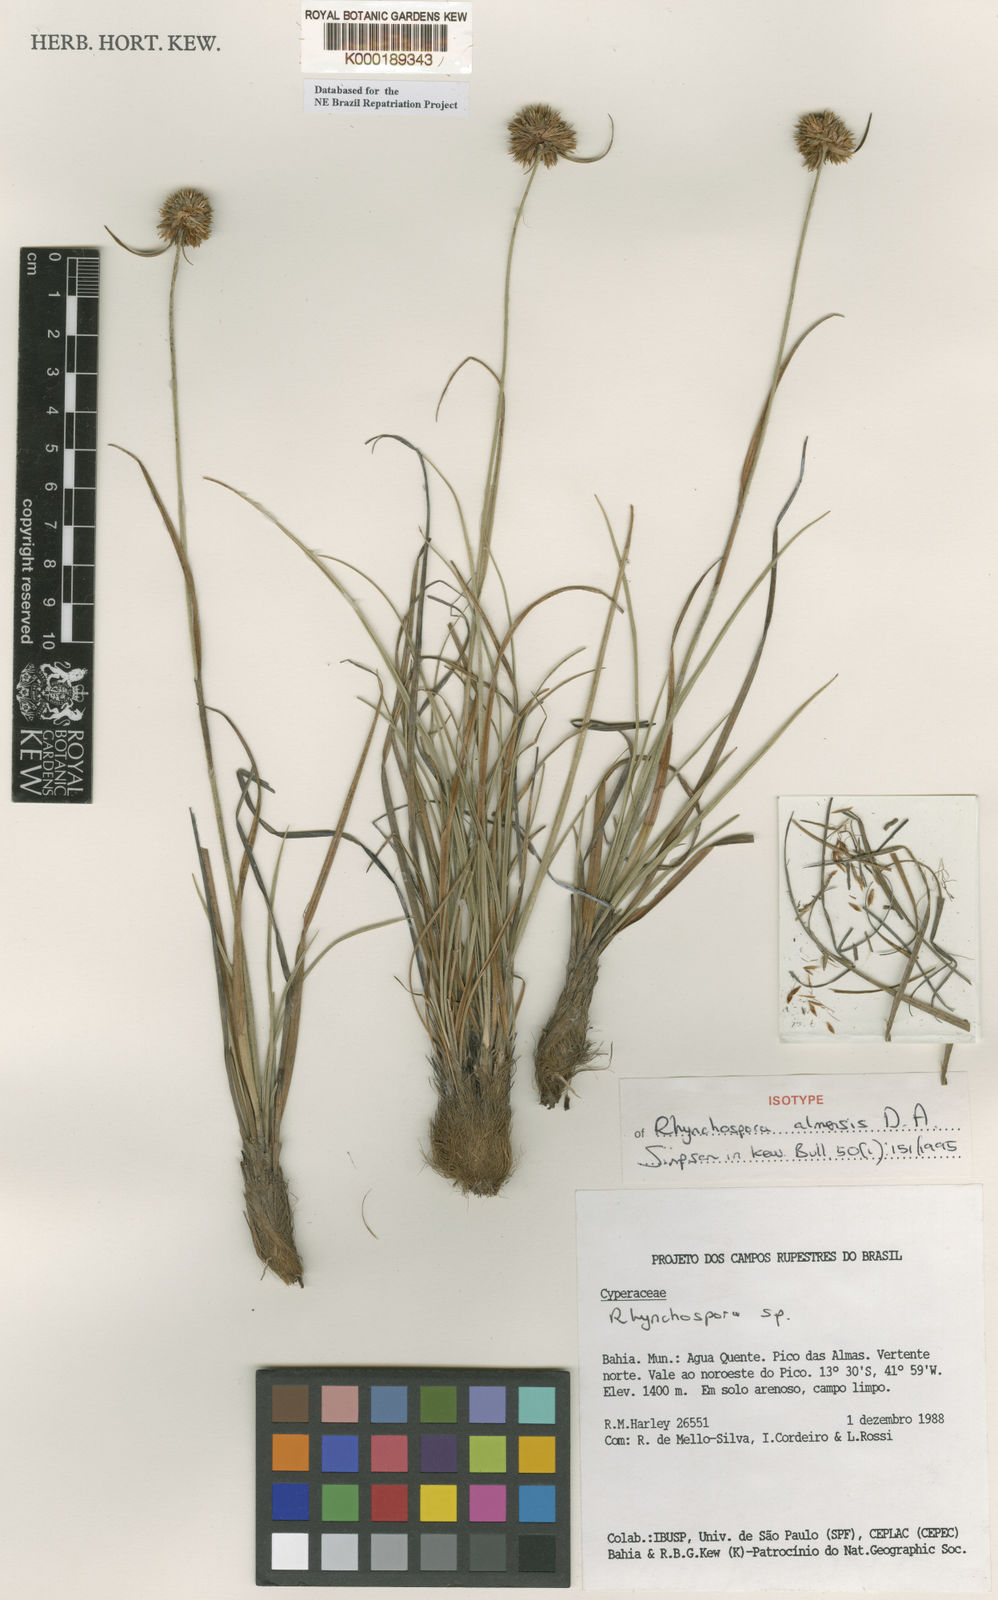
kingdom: Plantae
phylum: Tracheophyta
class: Liliopsida
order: Poales
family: Cyperaceae
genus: Rhynchospora
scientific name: Rhynchospora almensis
